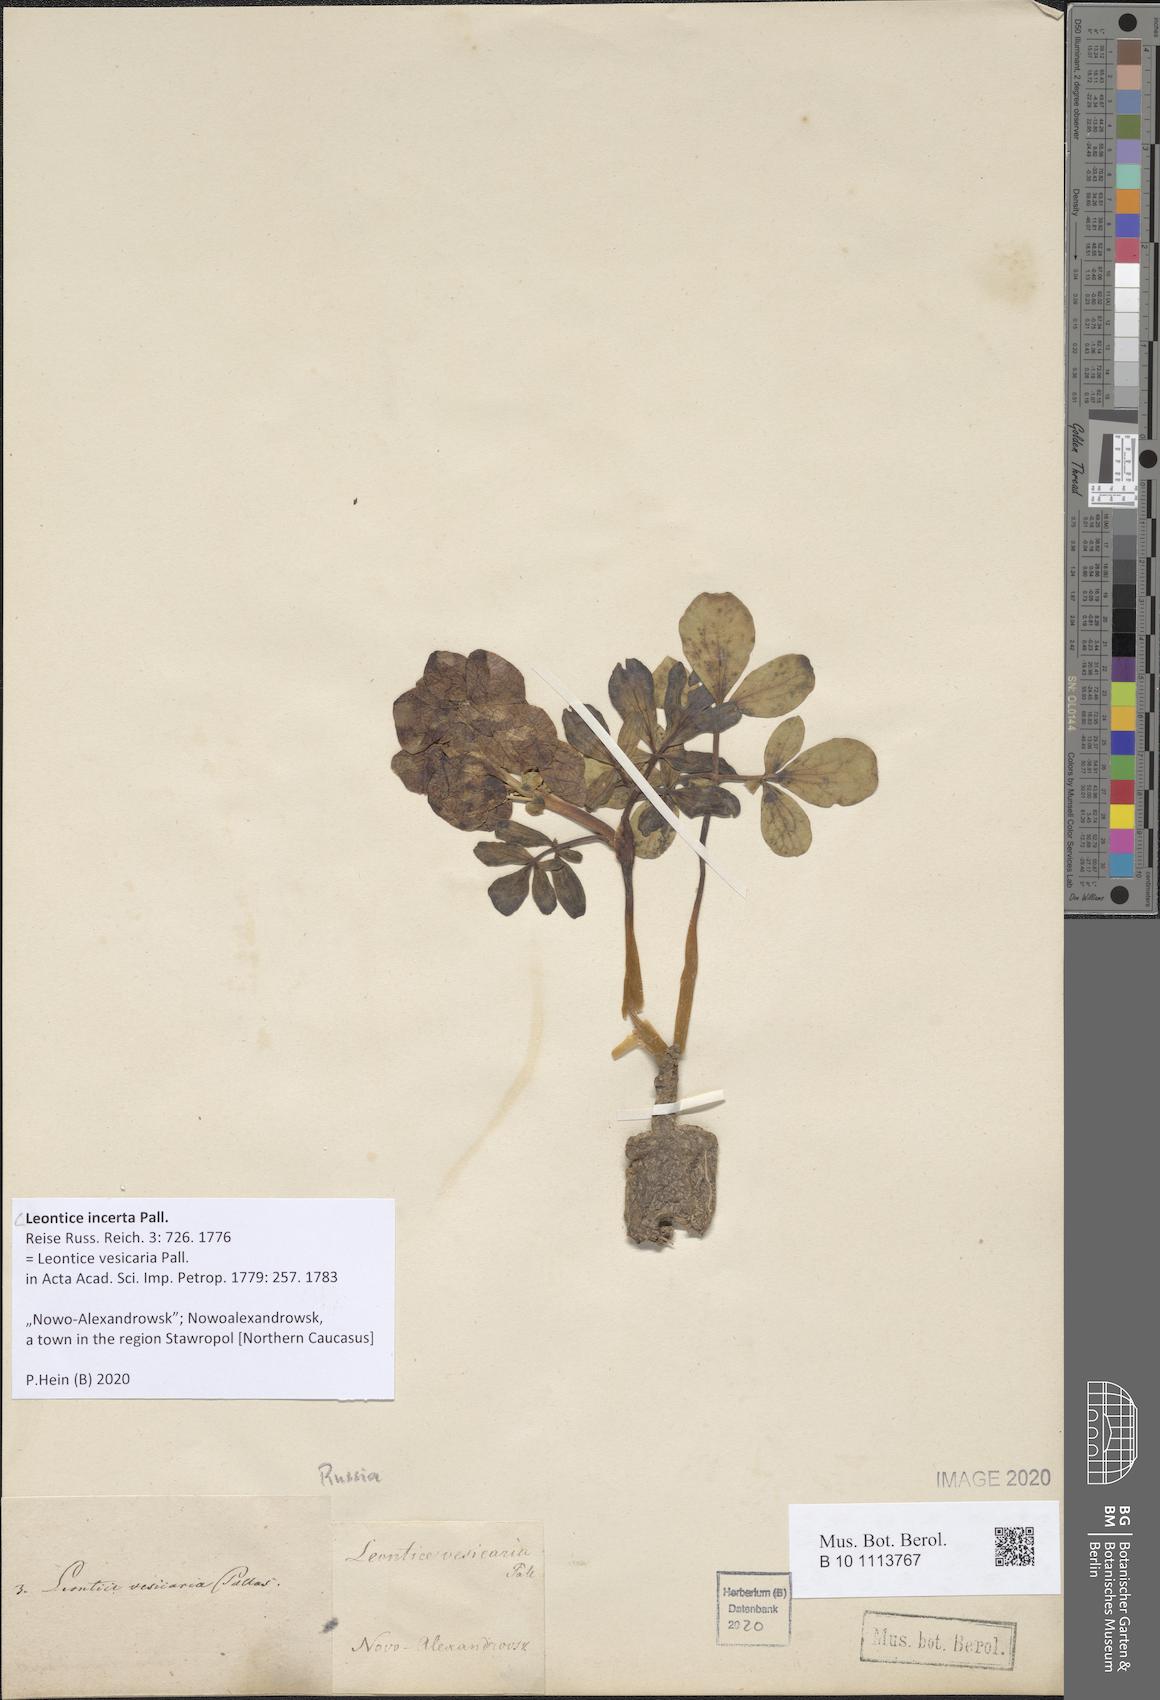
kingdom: Plantae
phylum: Tracheophyta
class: Magnoliopsida
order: Ranunculales
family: Berberidaceae
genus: Leontice
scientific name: Leontice incerta
